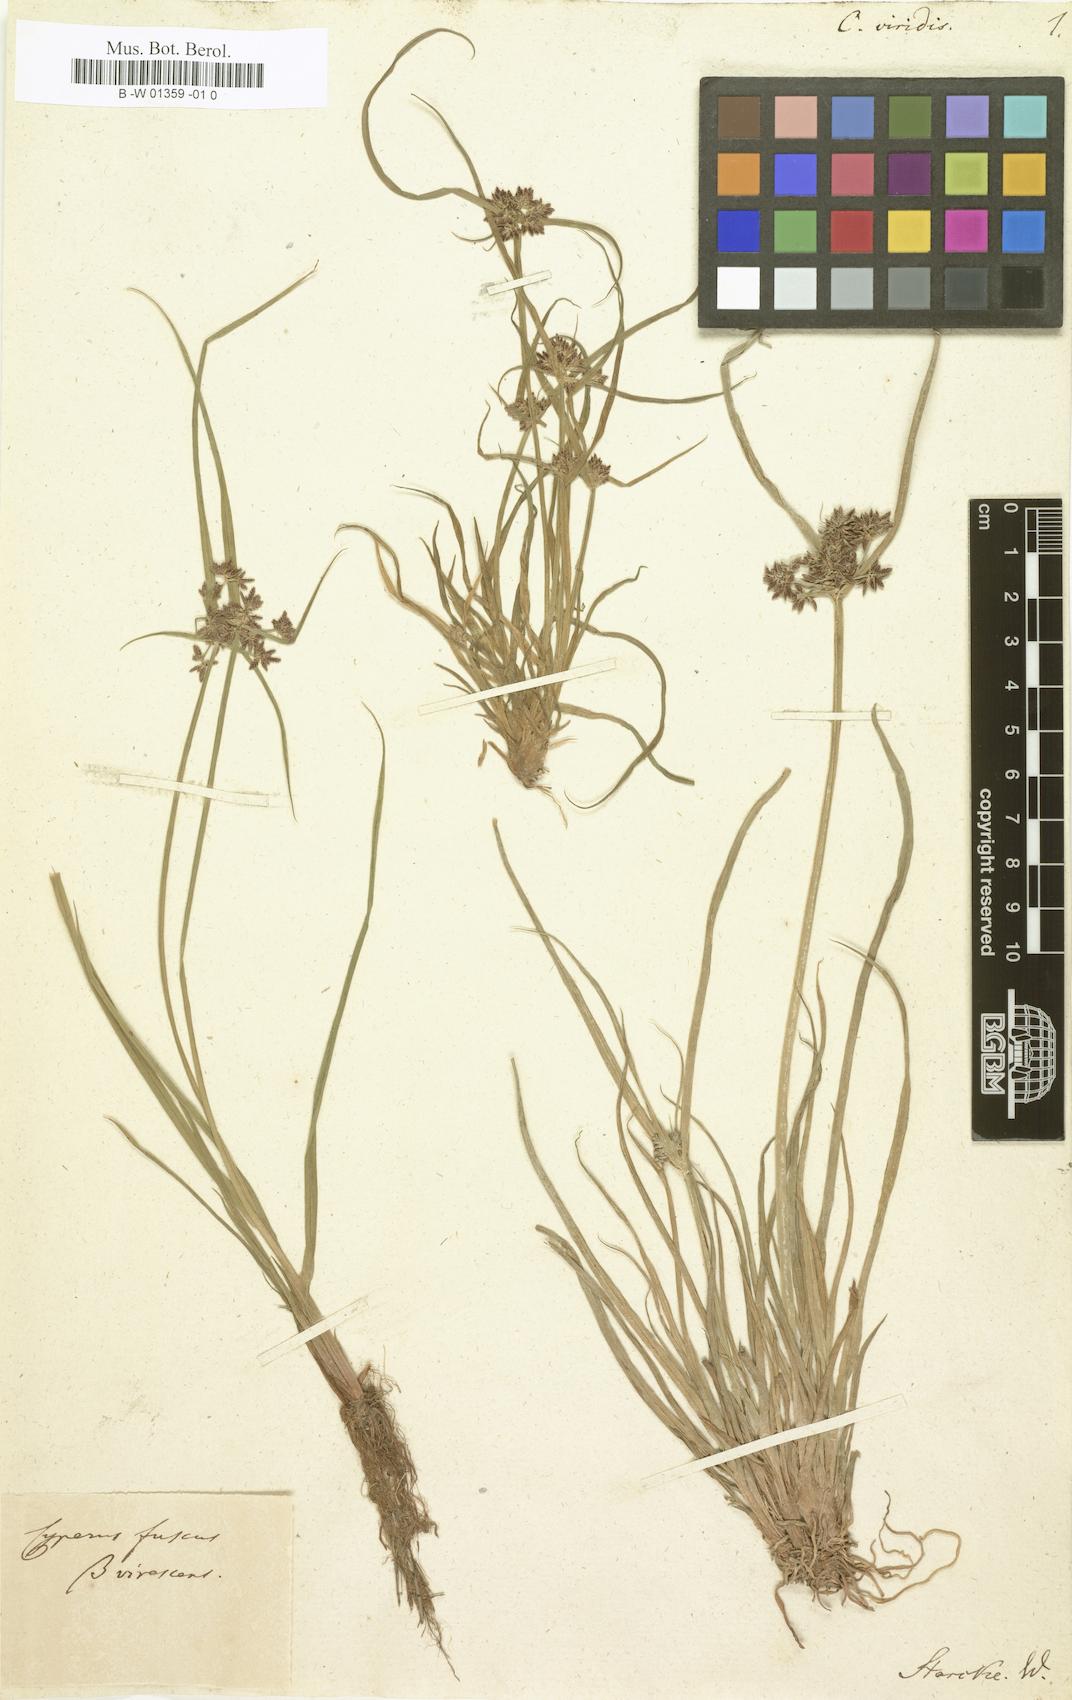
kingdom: Plantae
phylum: Tracheophyta
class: Liliopsida
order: Poales
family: Cyperaceae
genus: Cyperus
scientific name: Cyperus
